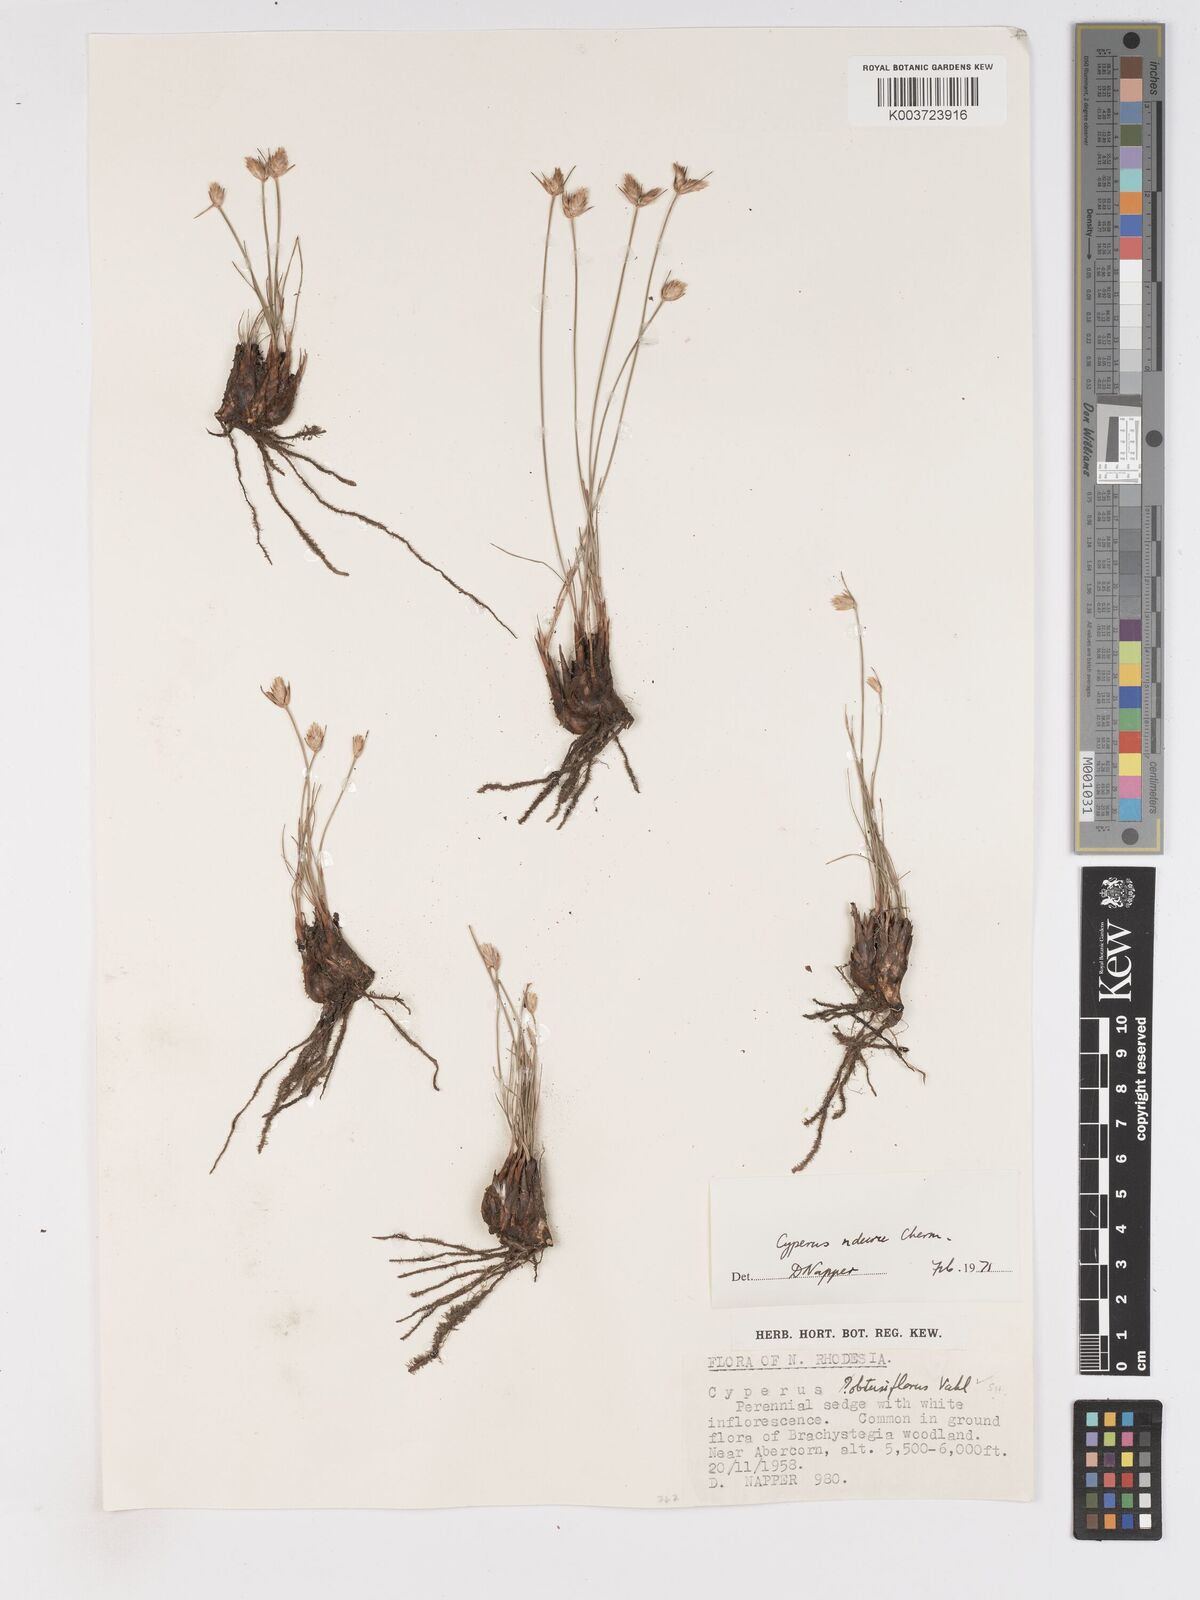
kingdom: Plantae
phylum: Tracheophyta
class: Liliopsida
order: Poales
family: Cyperaceae
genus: Cyperus
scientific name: Cyperus nduru
